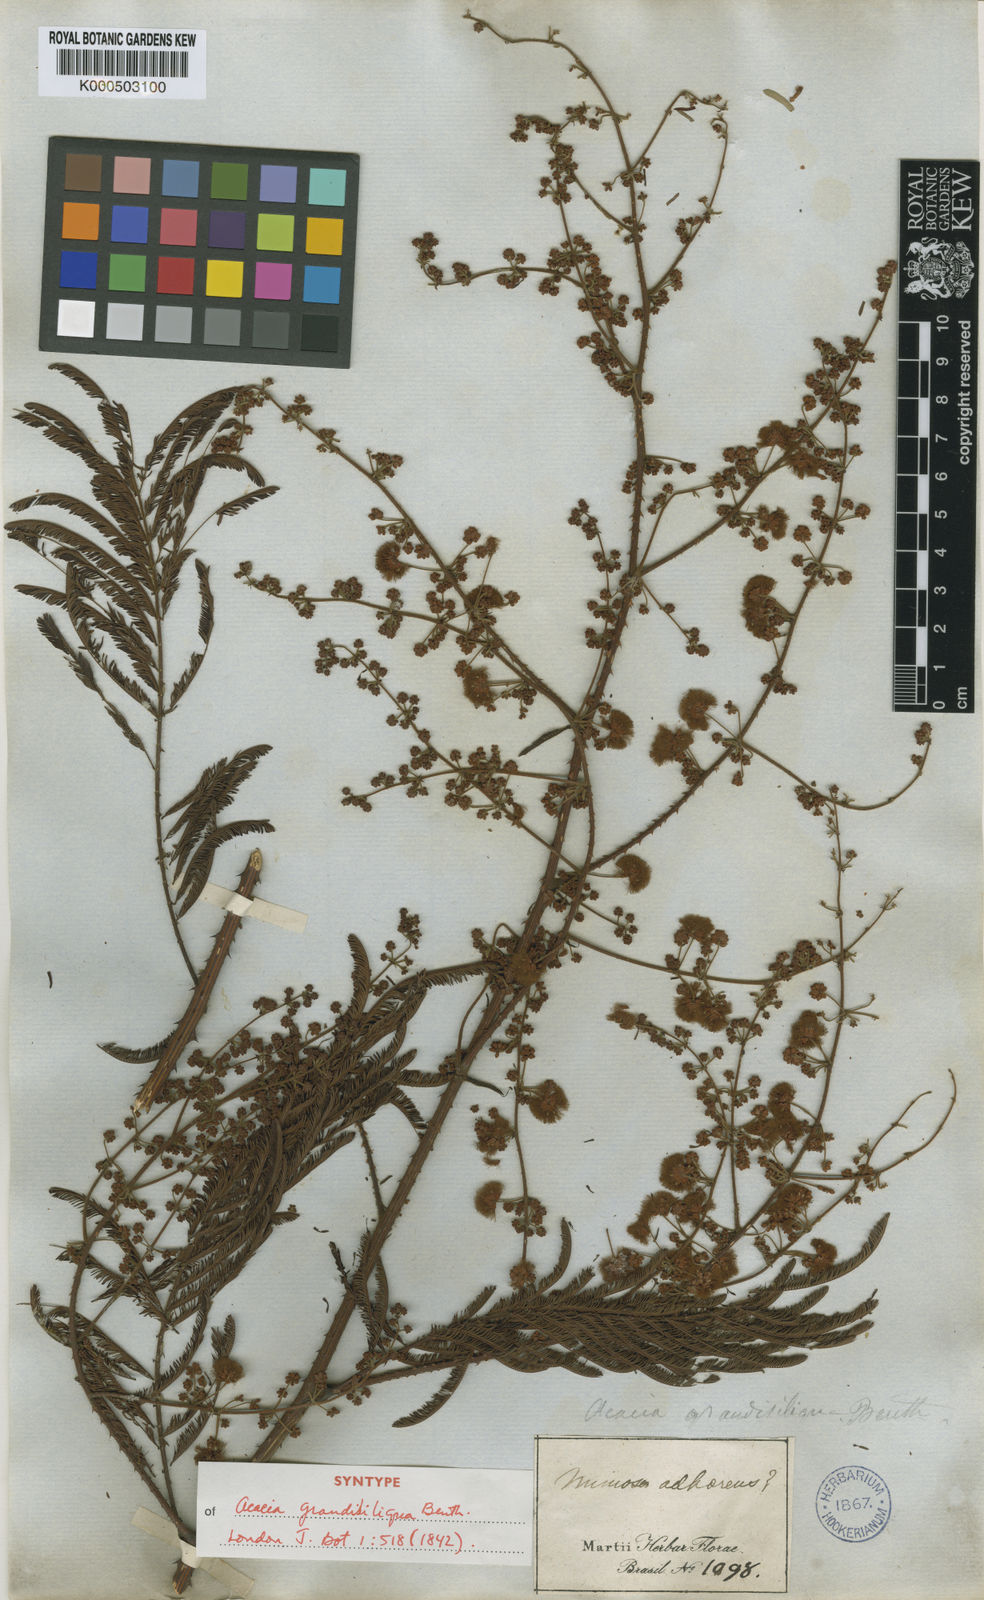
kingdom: Plantae
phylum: Tracheophyta
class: Magnoliopsida
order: Fabales
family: Fabaceae
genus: Senegalia
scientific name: Senegalia grandisiliqua
